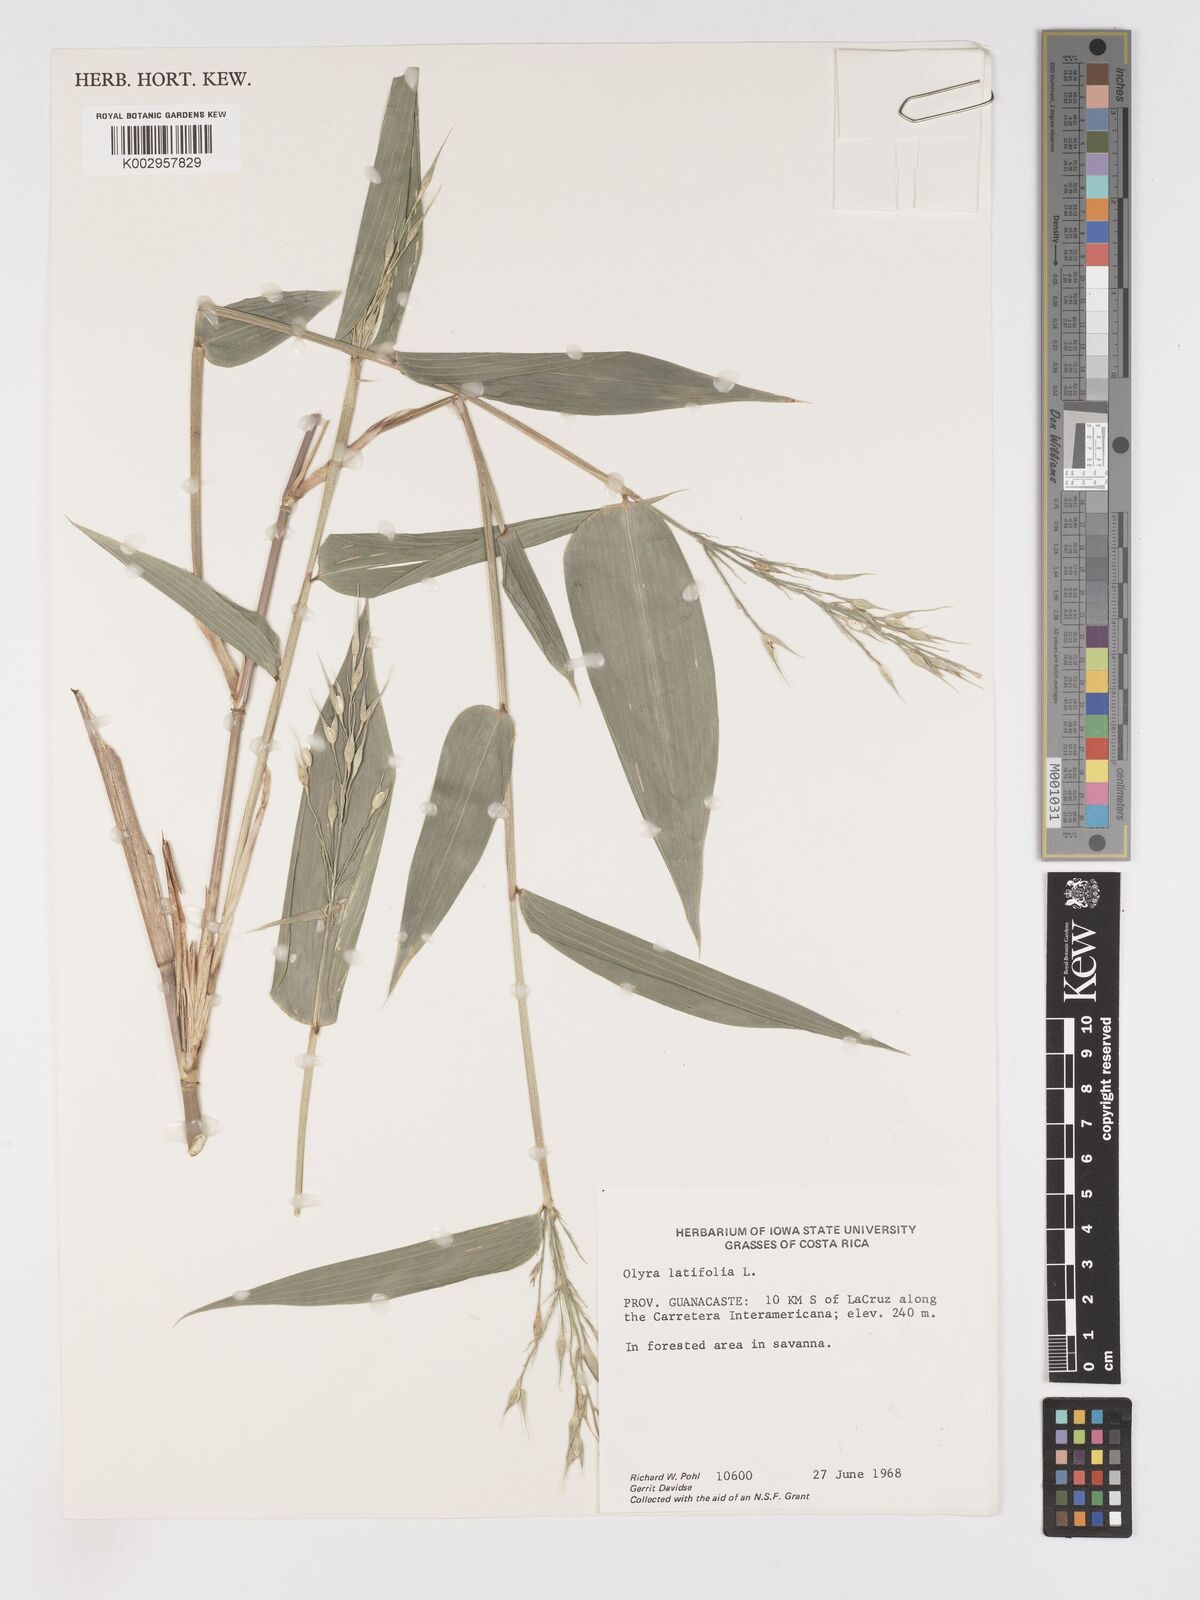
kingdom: Plantae
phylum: Tracheophyta
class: Liliopsida
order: Poales
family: Poaceae
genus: Olyra
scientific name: Olyra latifolia
